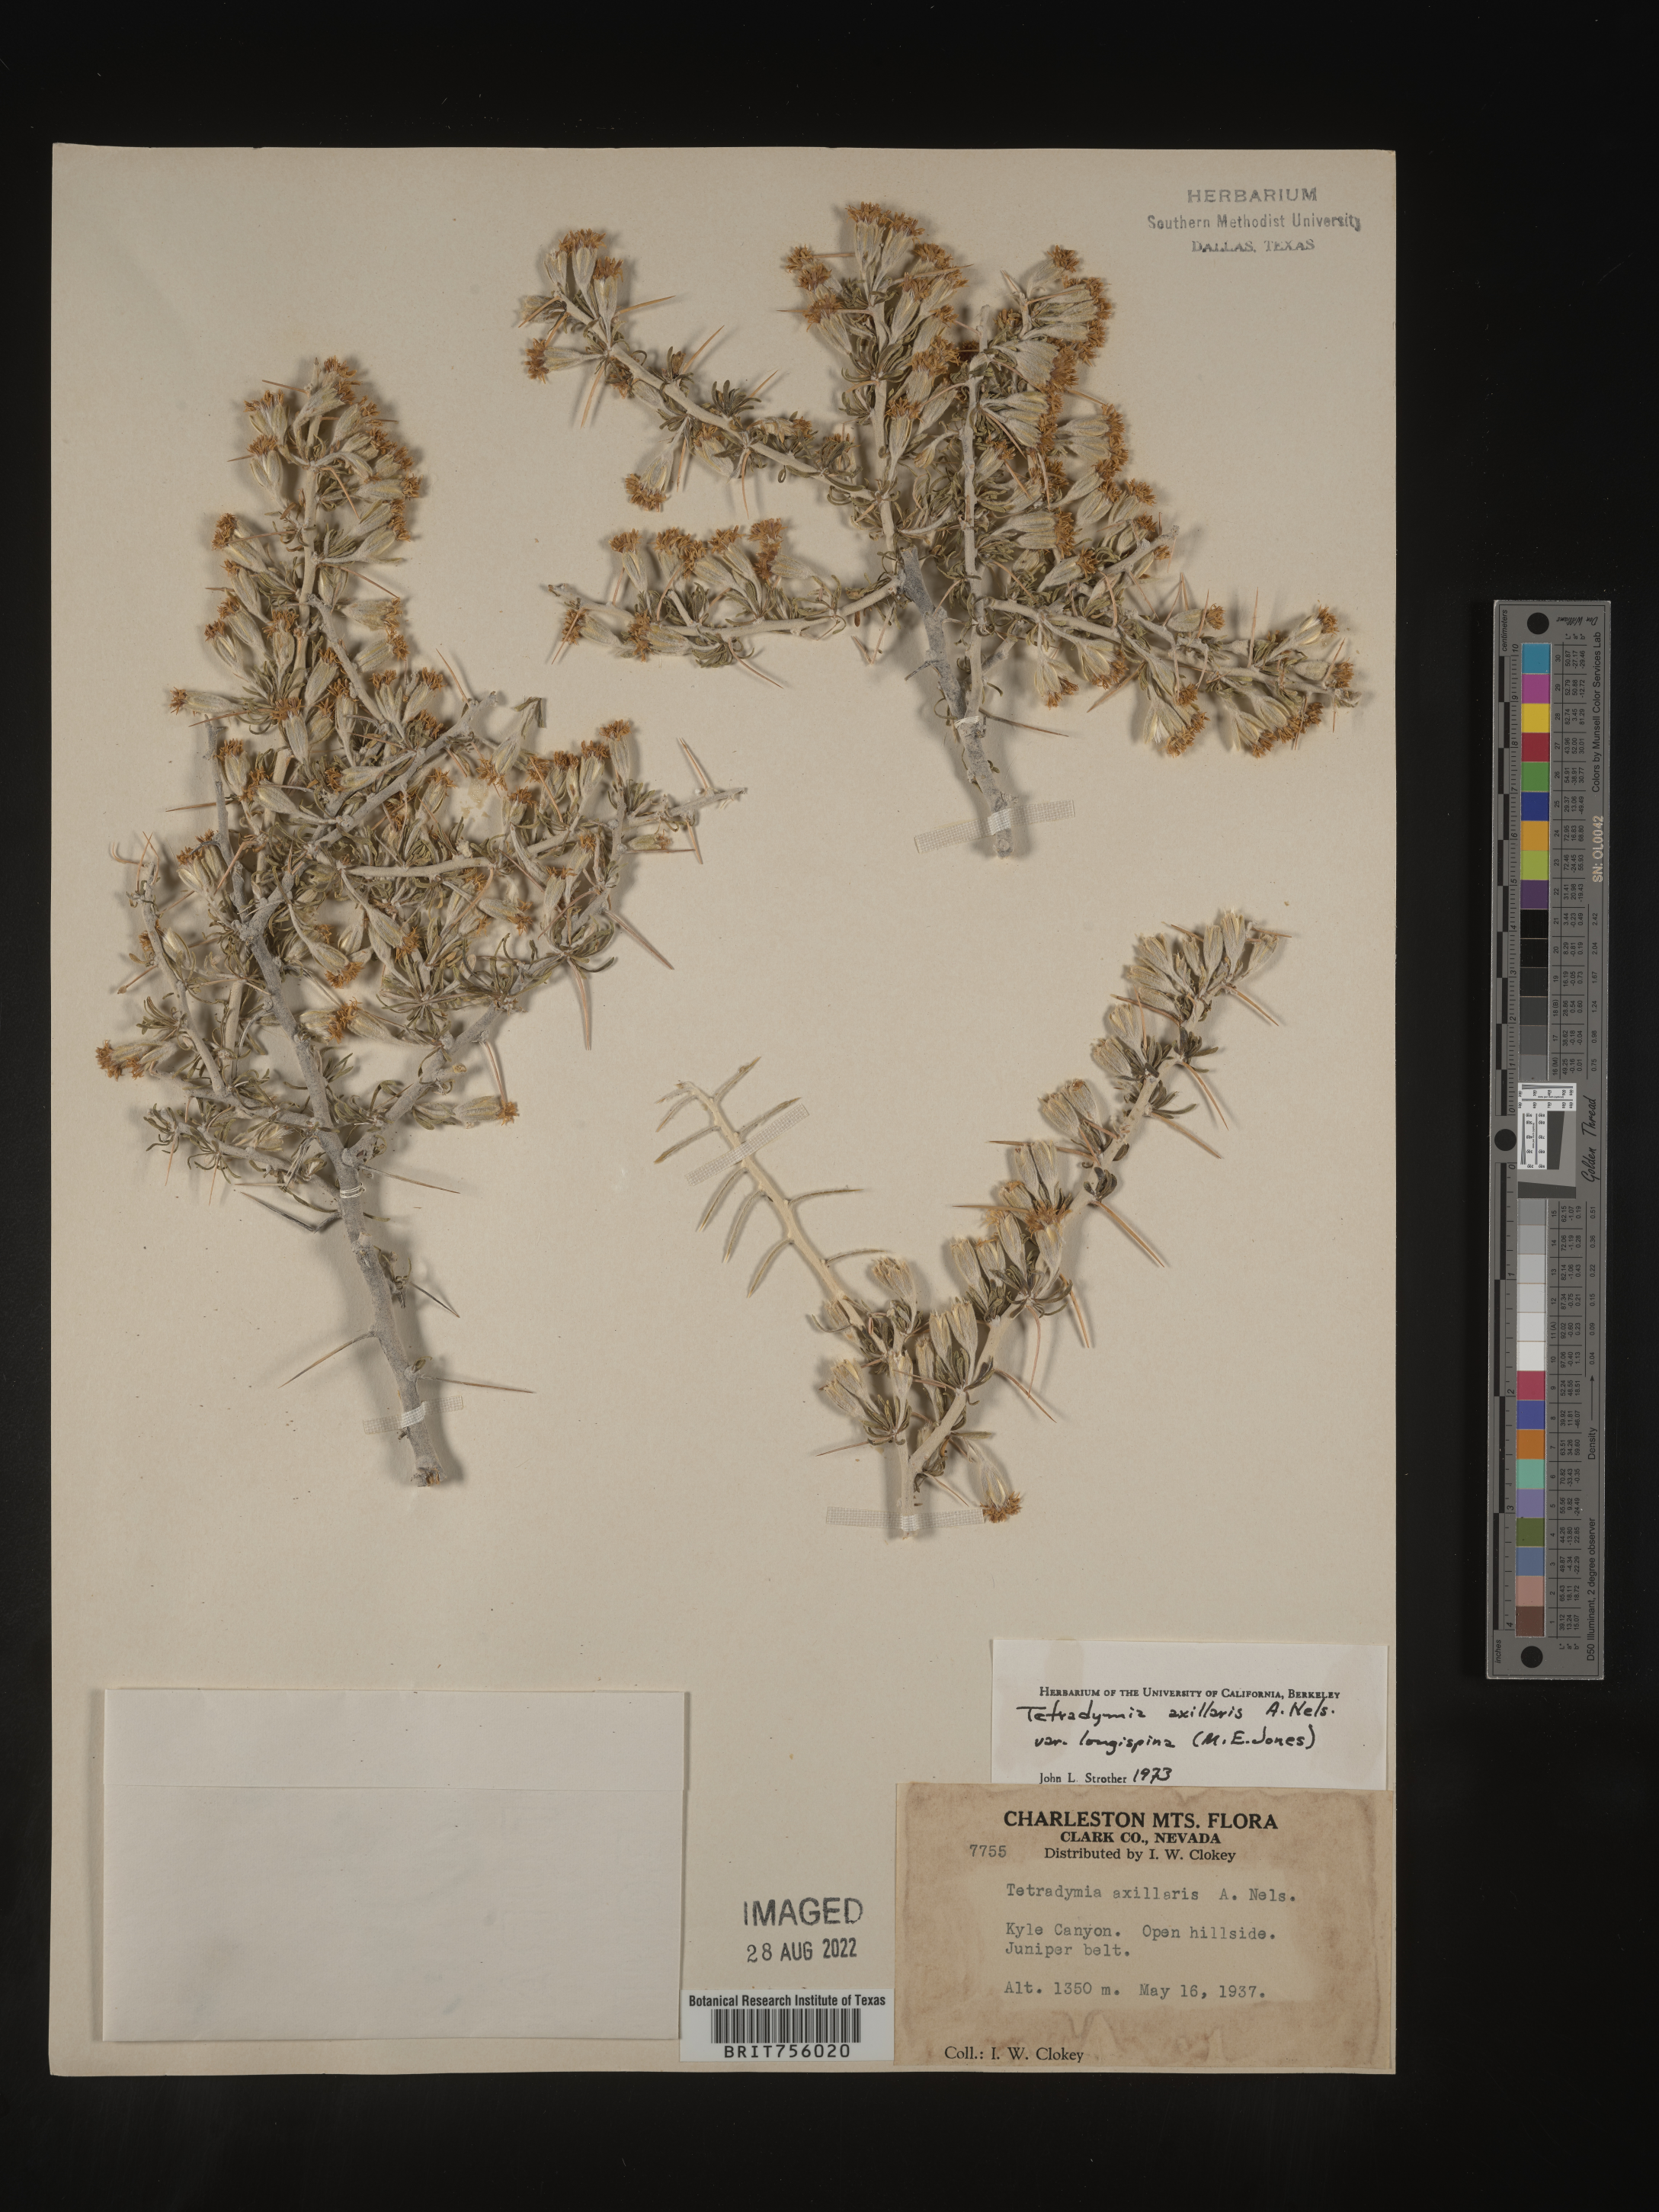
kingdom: Plantae
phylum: Tracheophyta
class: Magnoliopsida
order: Asterales
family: Asteraceae
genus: Tetradymia
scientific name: Tetradymia axillaris
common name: Long-spine horsebrush
